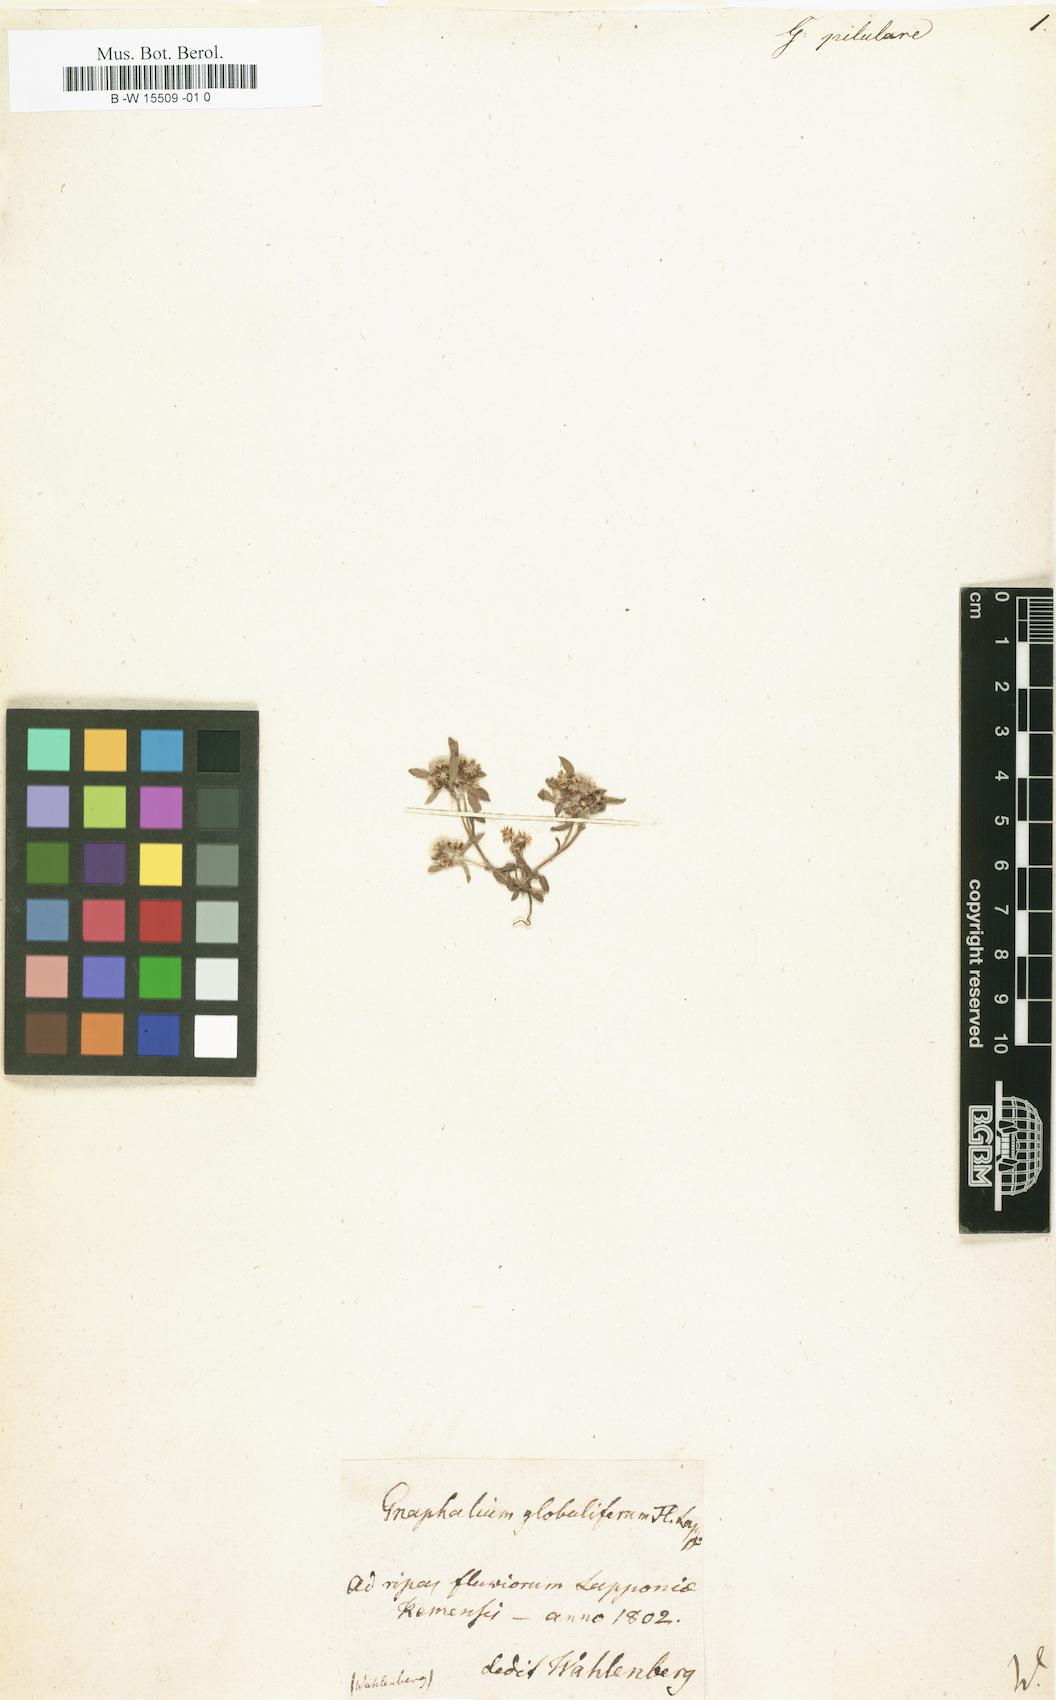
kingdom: Plantae
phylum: Tracheophyta
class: Magnoliopsida
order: Asterales
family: Asteraceae
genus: Gnaphalium
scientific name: Gnaphalium pilulare
